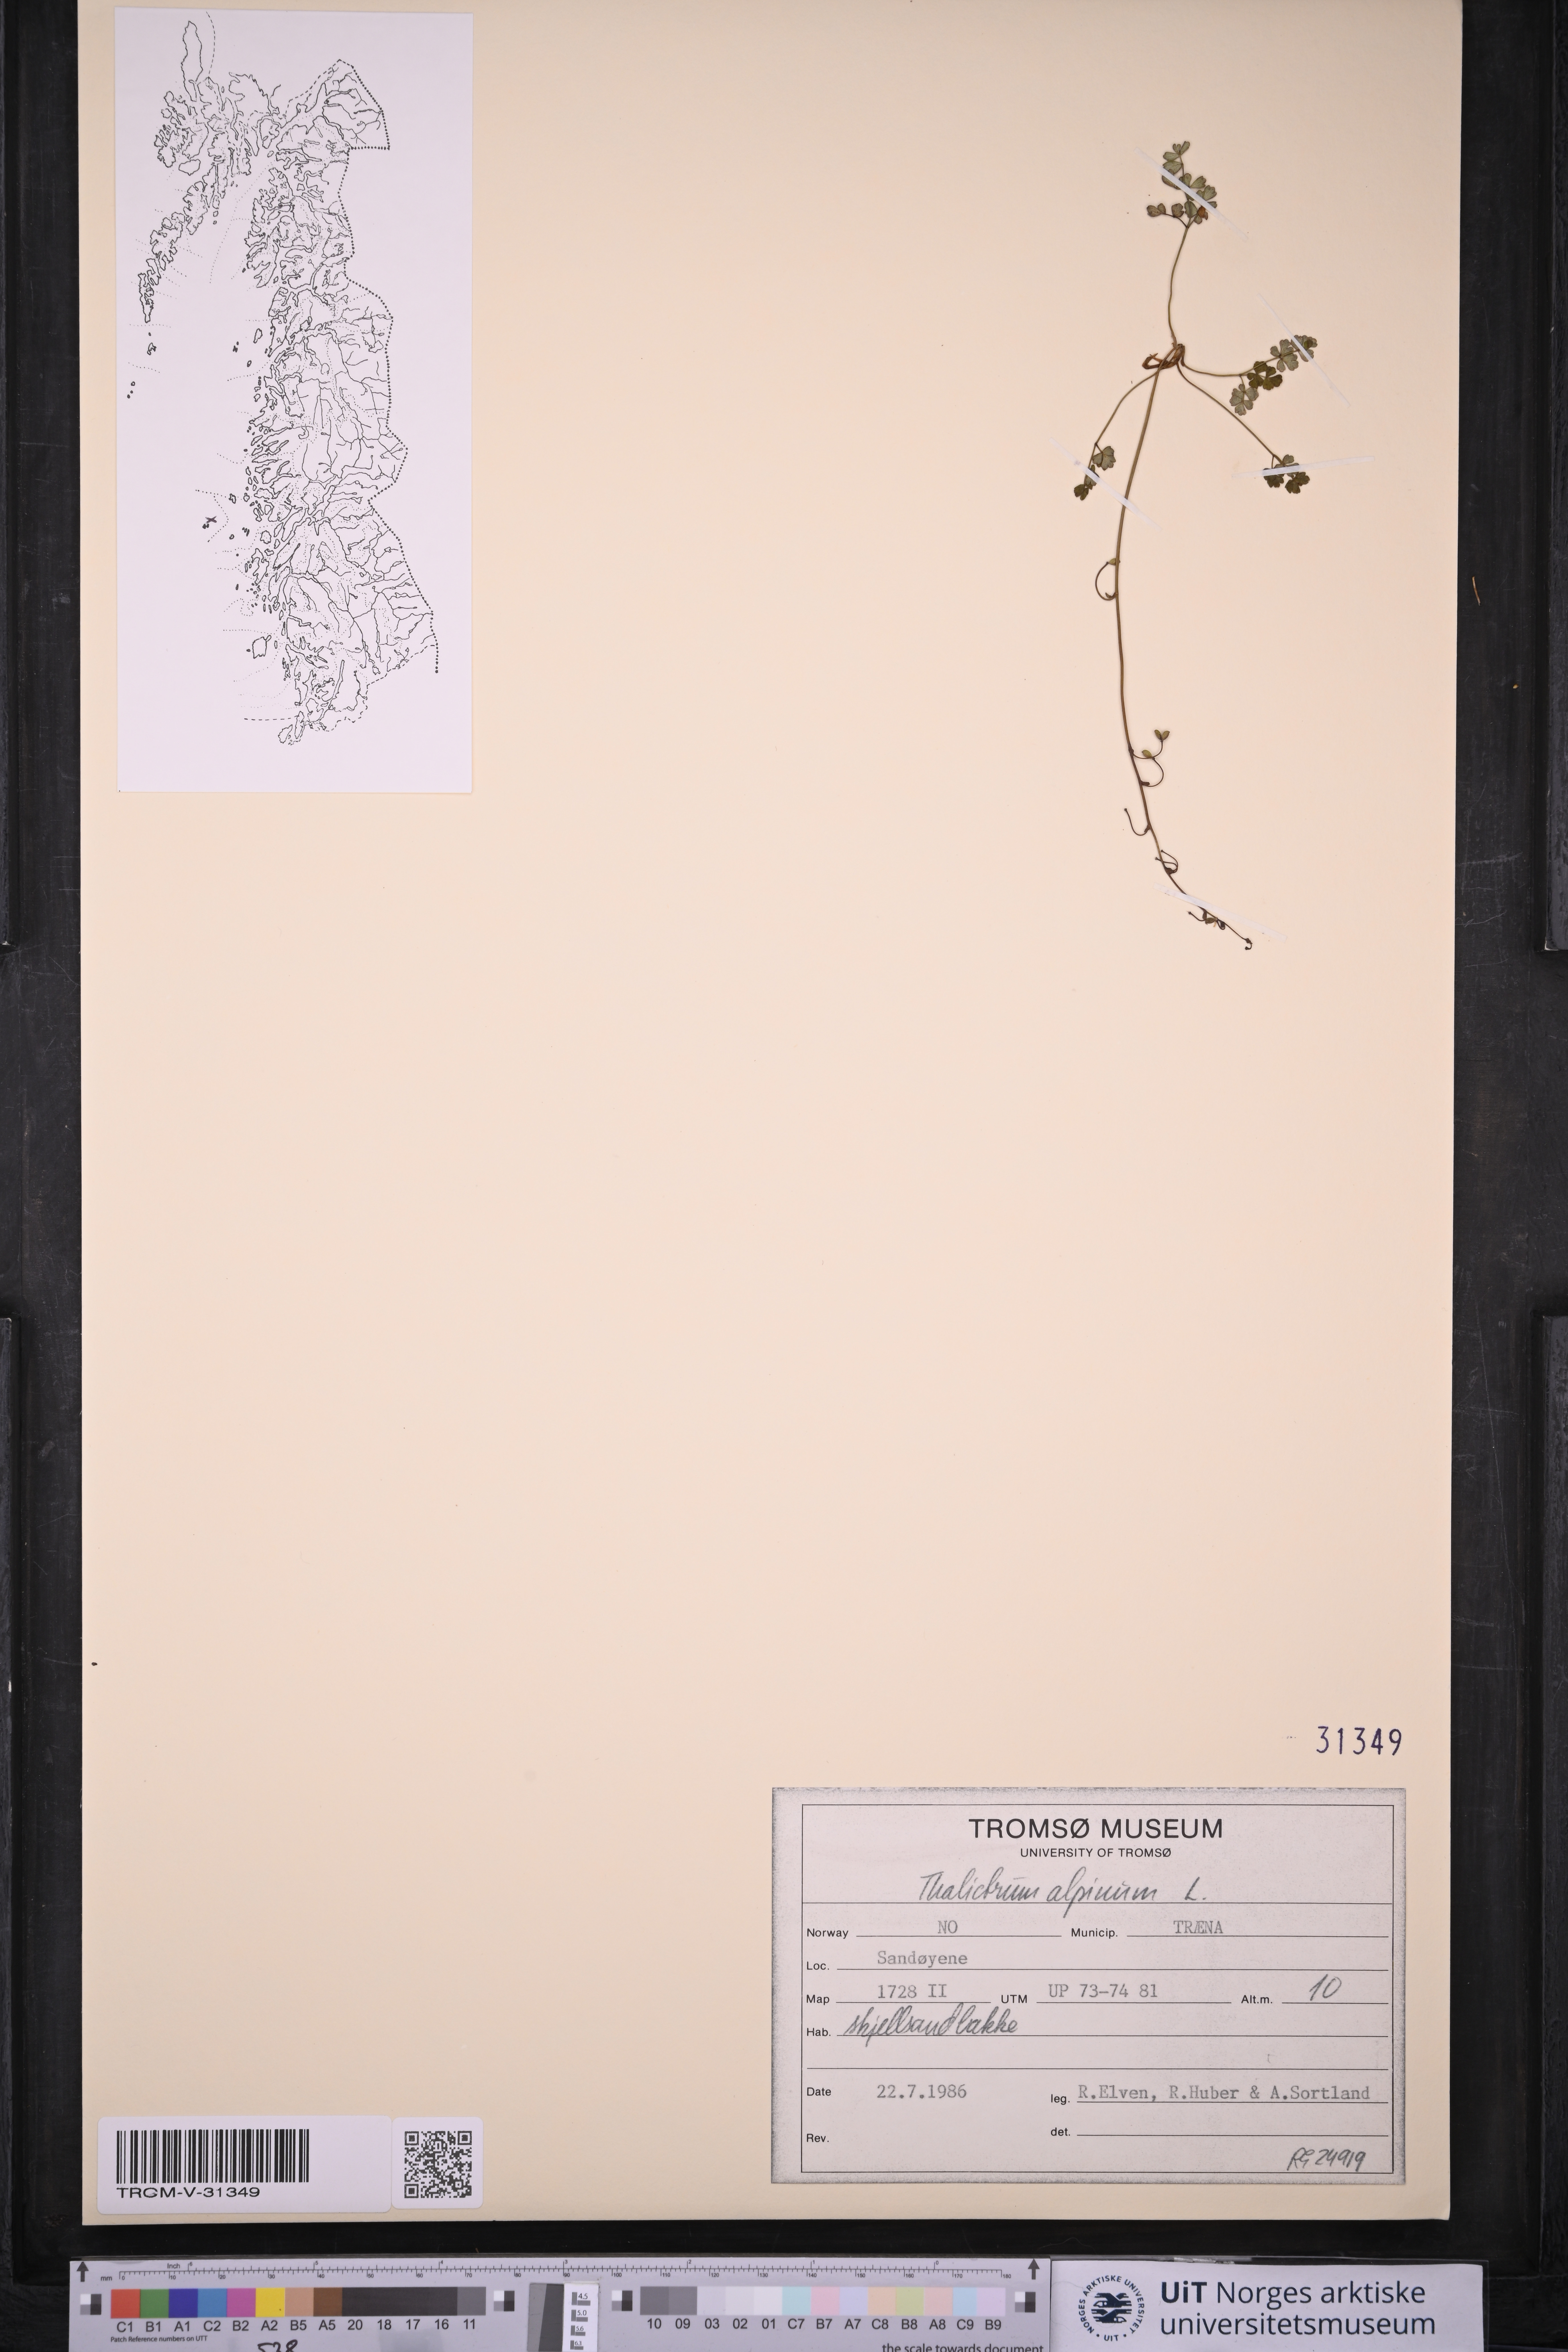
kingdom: Plantae
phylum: Tracheophyta
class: Magnoliopsida
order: Ranunculales
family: Ranunculaceae
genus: Thalictrum
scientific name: Thalictrum alpinum
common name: Alpine meadow-rue
